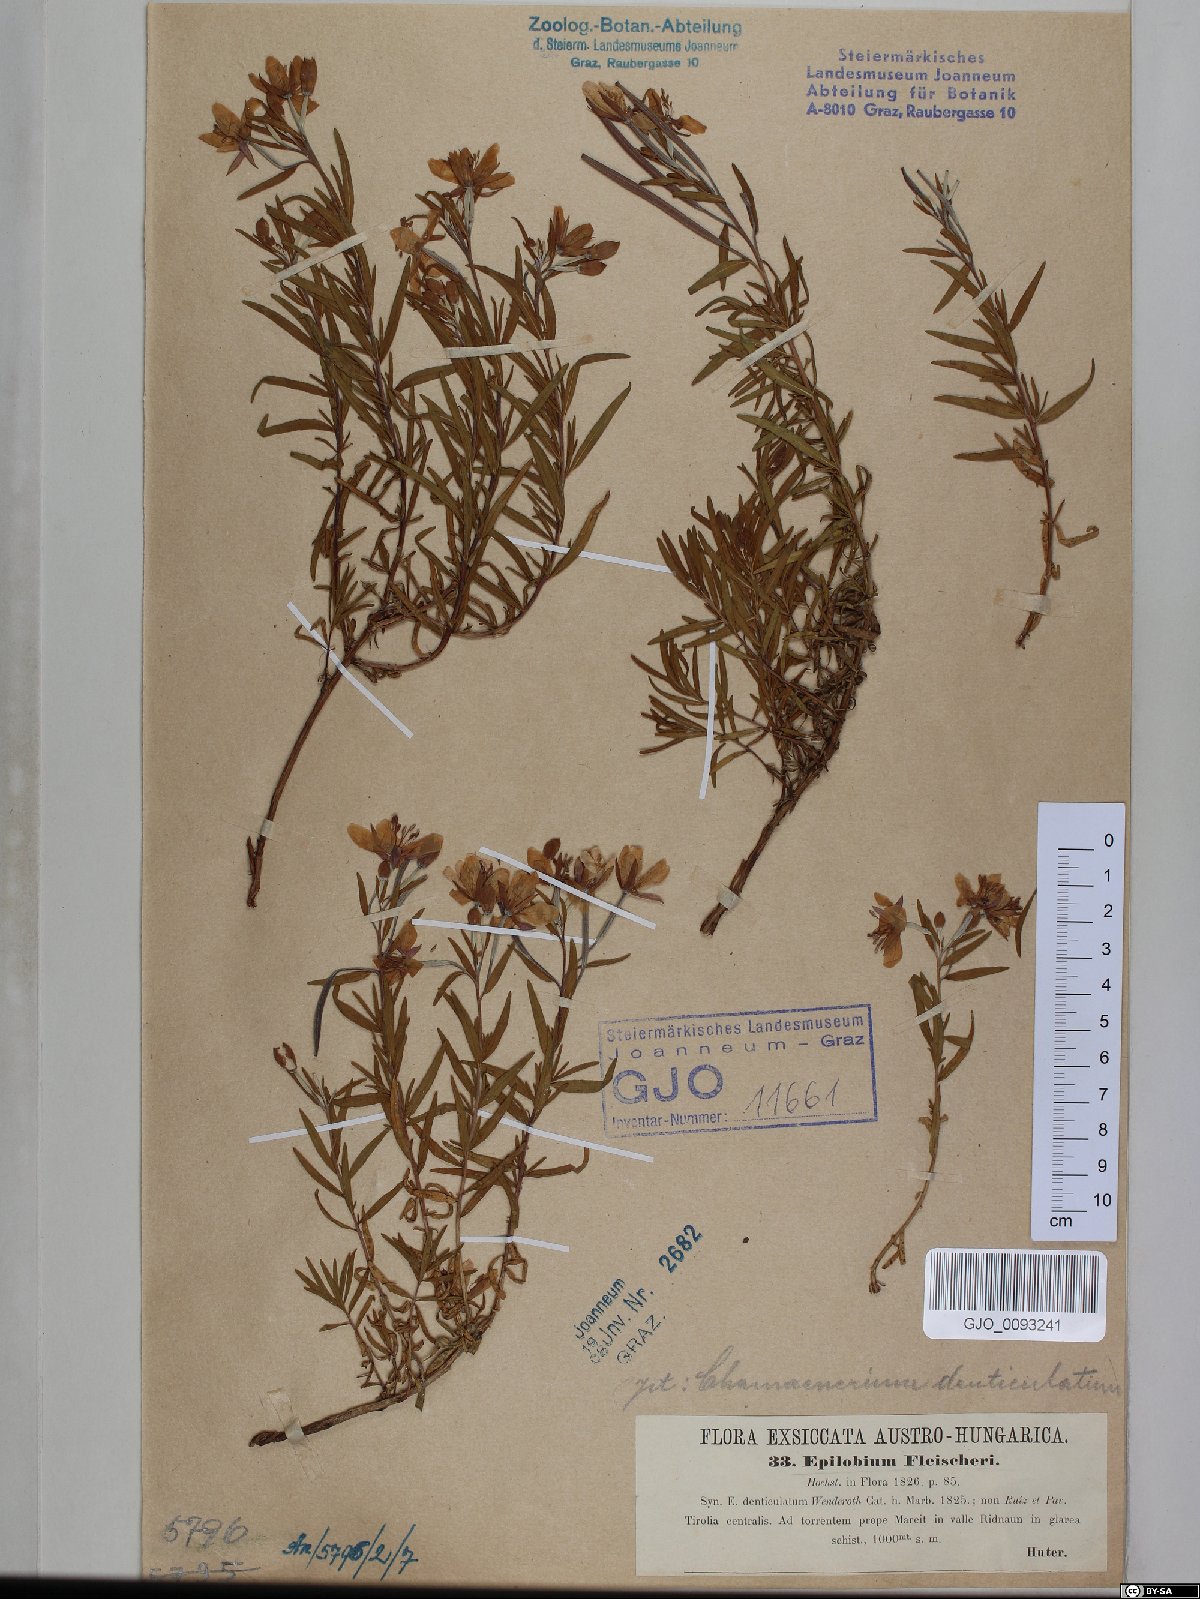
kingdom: Plantae
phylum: Tracheophyta
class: Magnoliopsida
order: Myrtales
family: Onagraceae
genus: Chamaenerion
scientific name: Chamaenerion fleischeri
